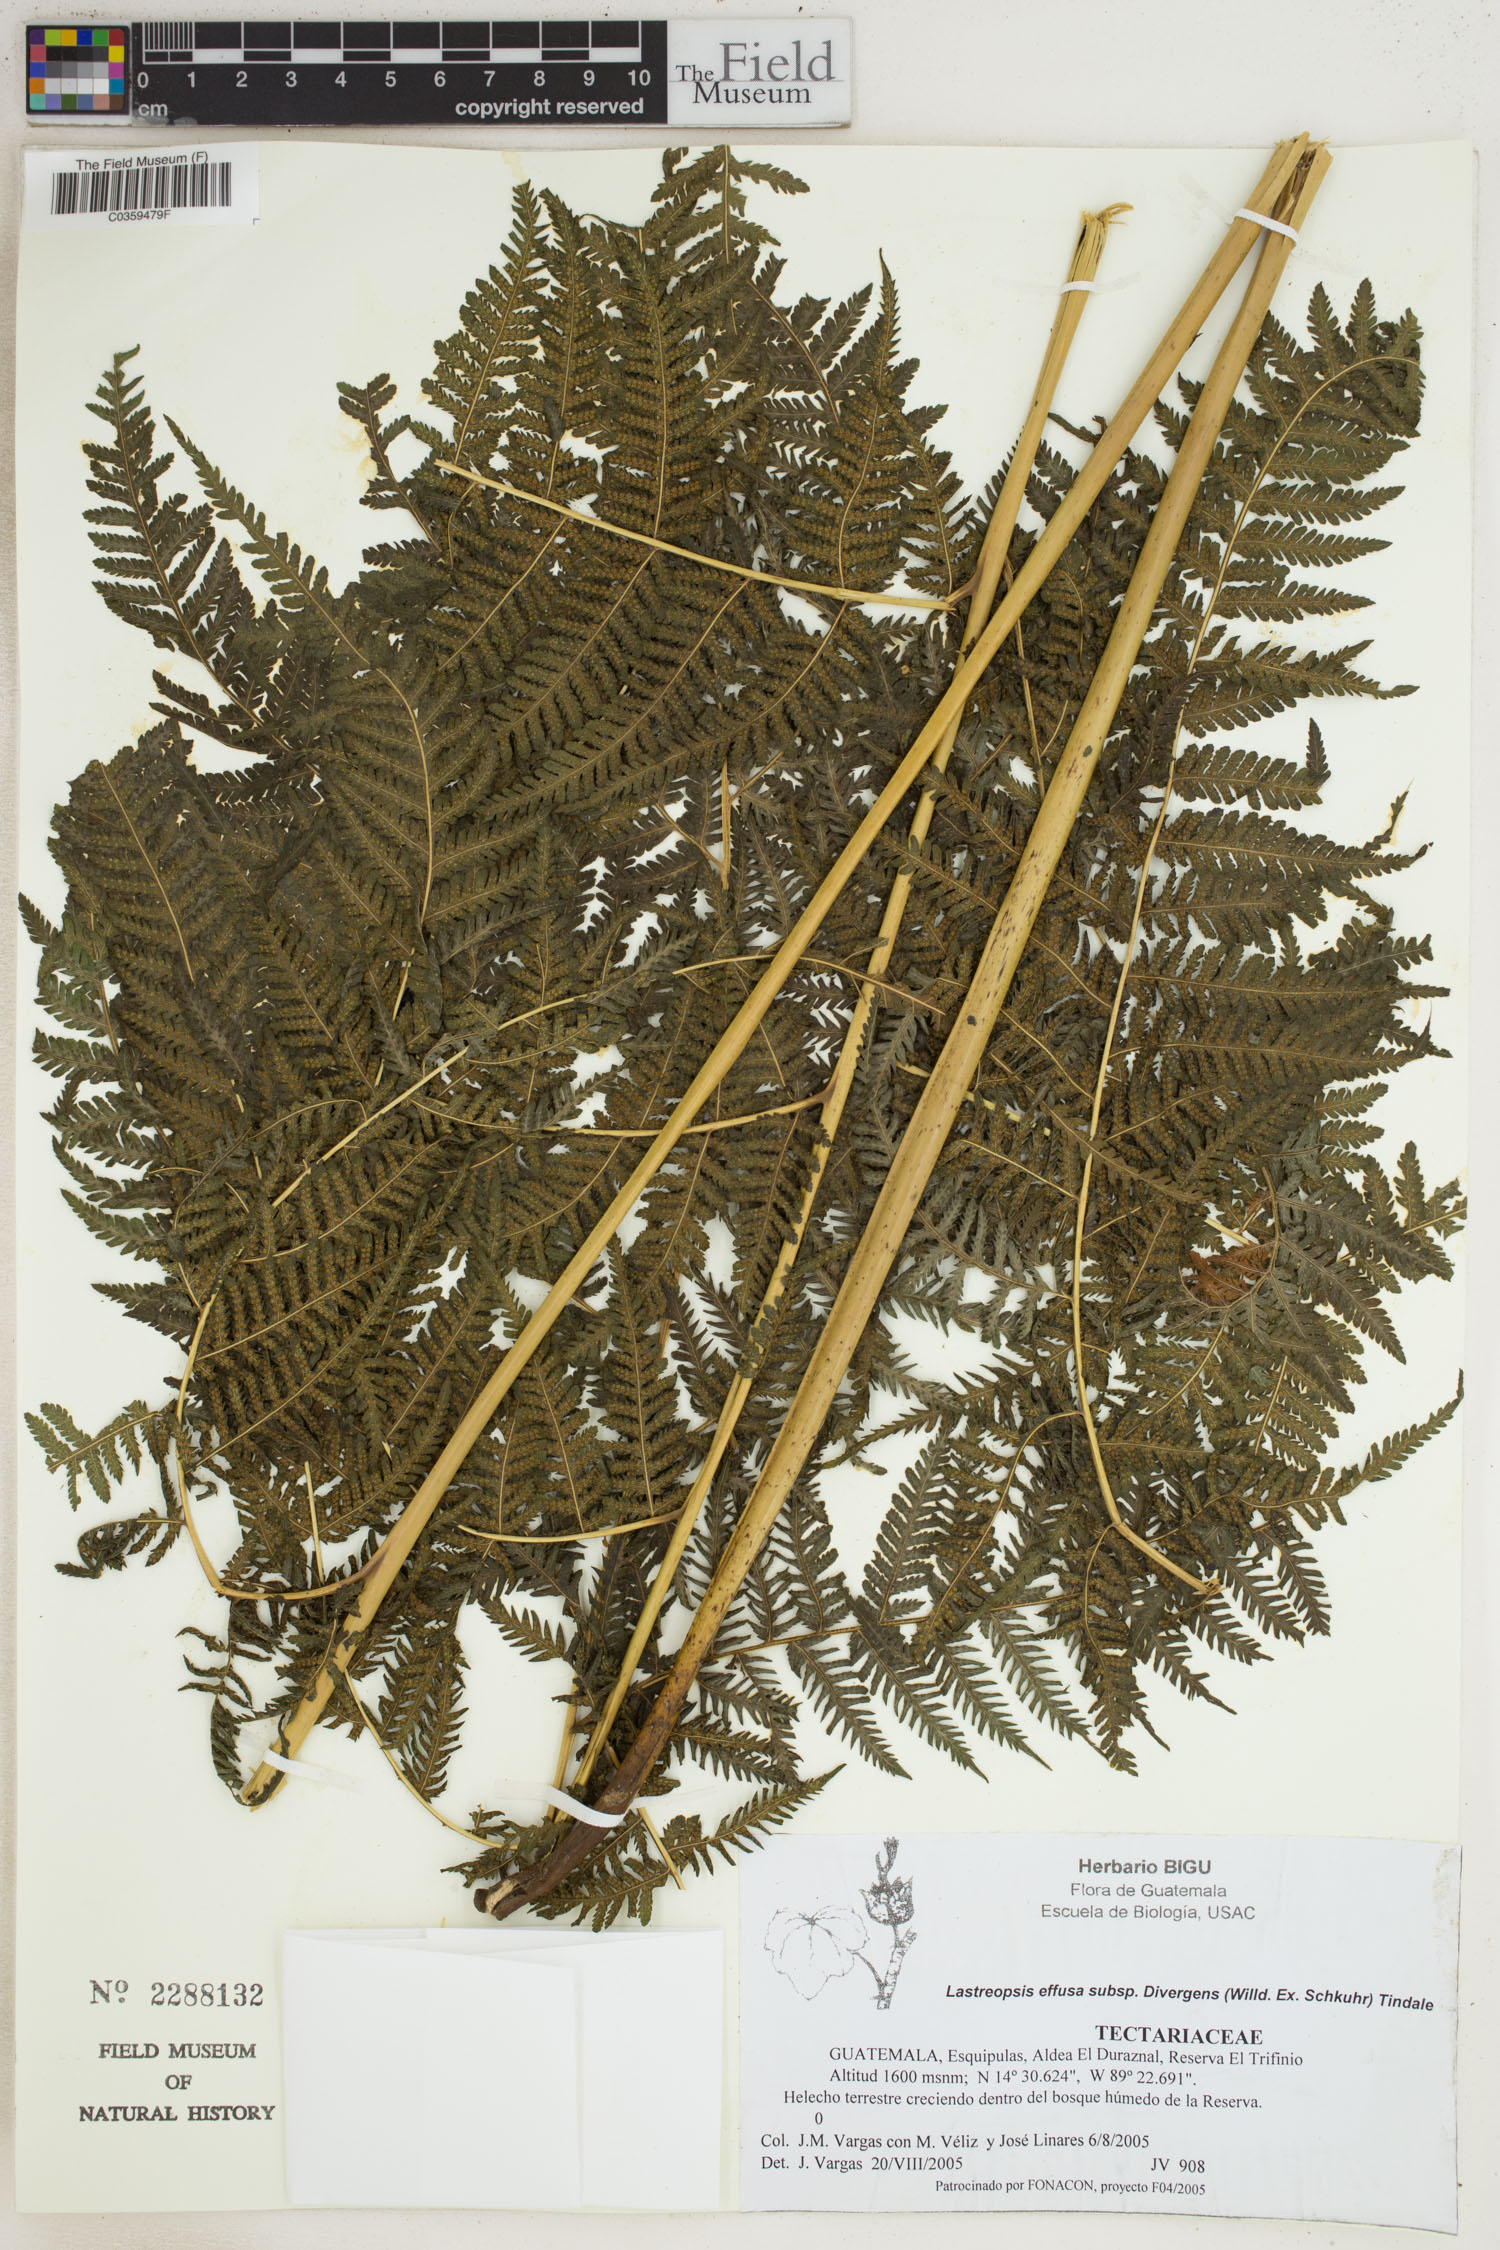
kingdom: Plantae
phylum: Tracheophyta
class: Polypodiopsida
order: Polypodiales
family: Dryopteridaceae
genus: Parapolystichum
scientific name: Parapolystichum effusum
